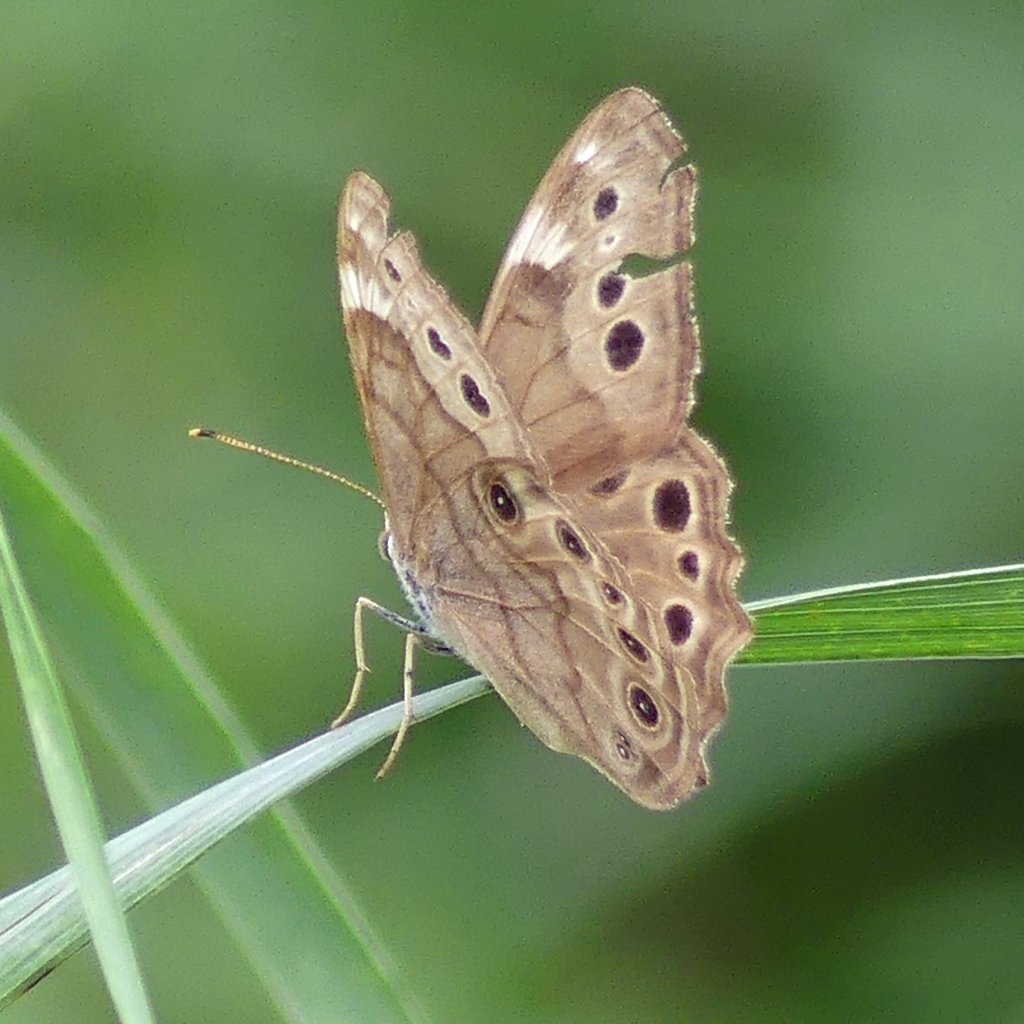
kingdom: Animalia
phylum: Arthropoda
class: Insecta
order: Lepidoptera
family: Nymphalidae
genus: Lethe
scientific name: Lethe anthedon
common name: Northern Pearly-Eye
